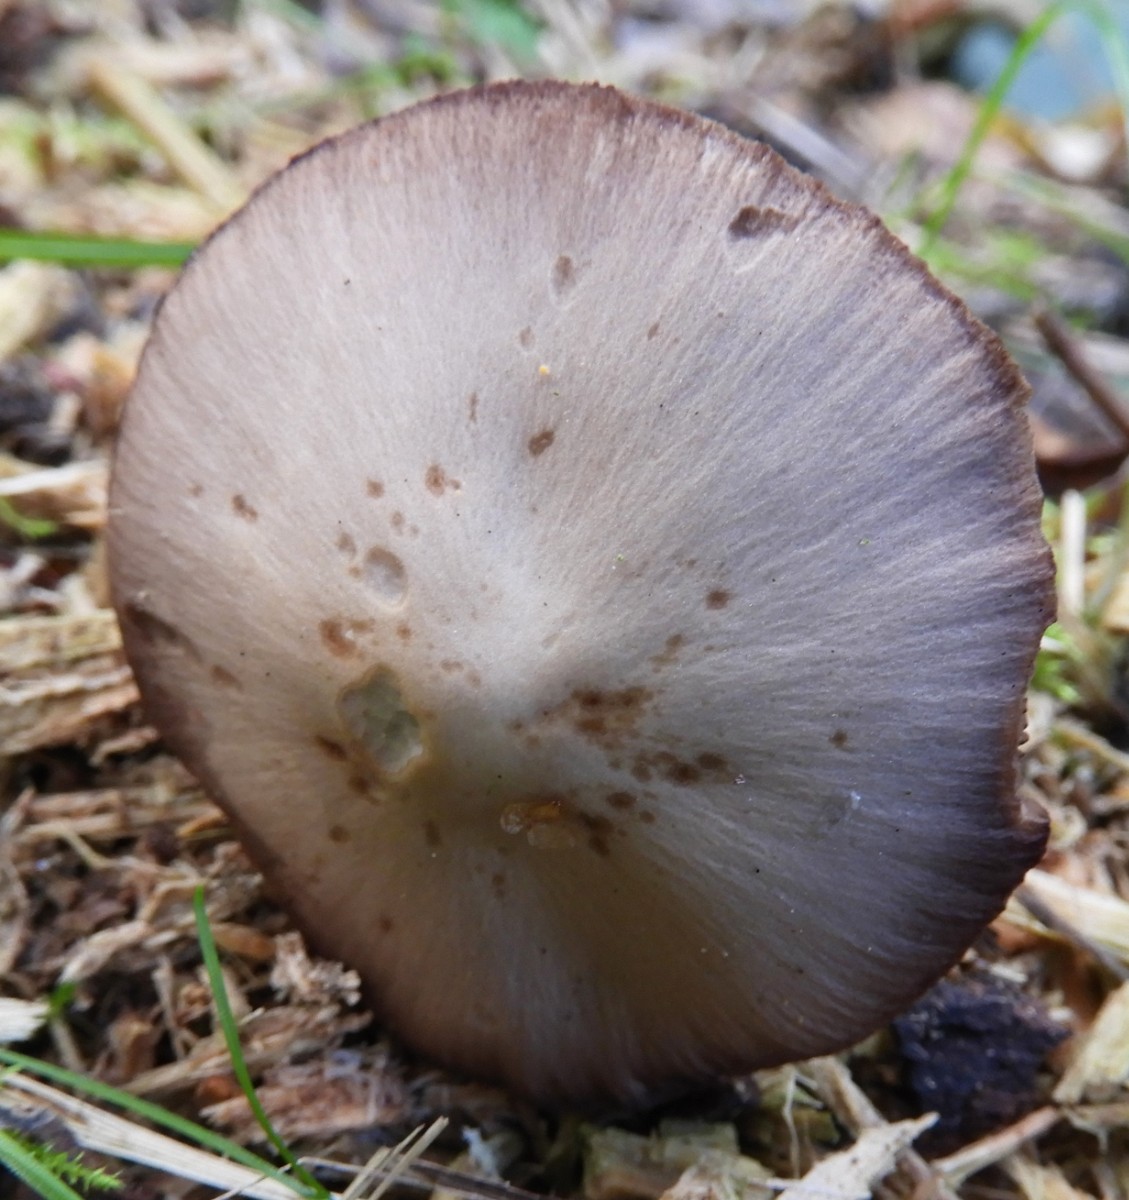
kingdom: Fungi
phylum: Basidiomycota
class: Agaricomycetes
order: Agaricales
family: Psathyrellaceae
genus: Psathyrella
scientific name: Psathyrella
